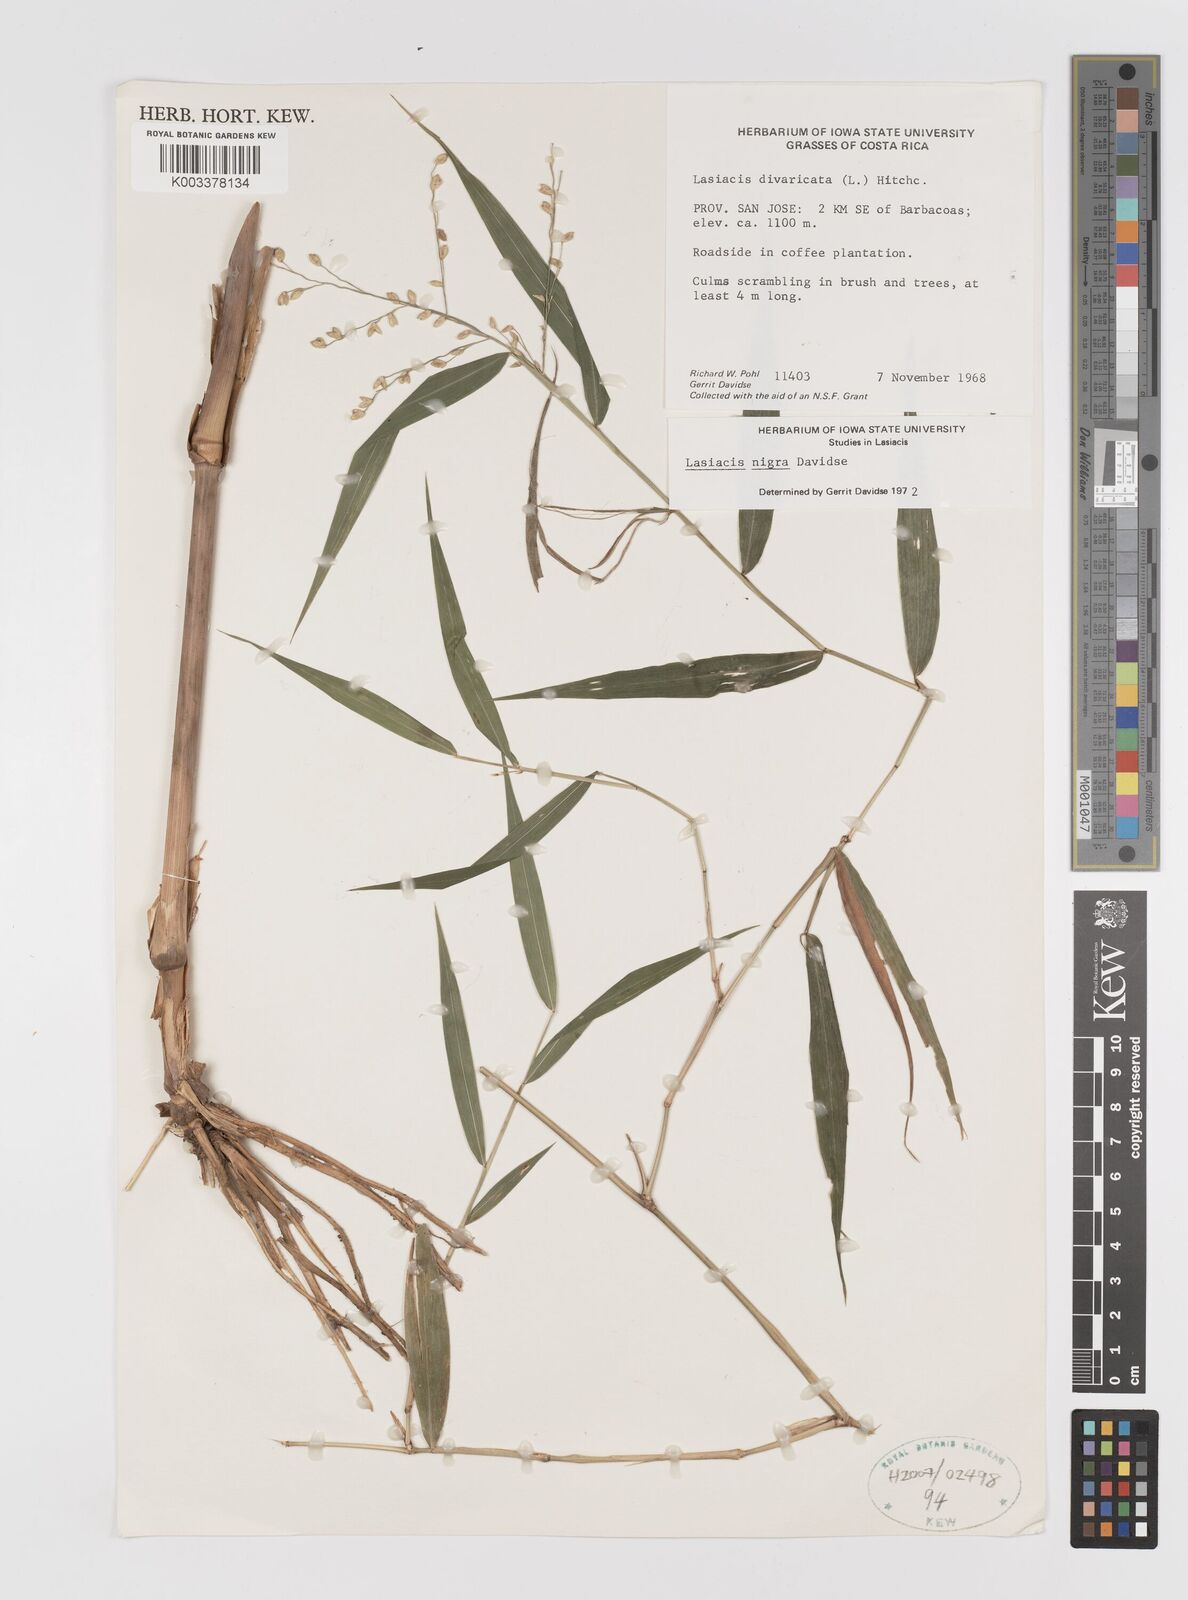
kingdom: Plantae
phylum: Tracheophyta
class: Liliopsida
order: Poales
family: Poaceae
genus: Lasiacis
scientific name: Lasiacis nigra
